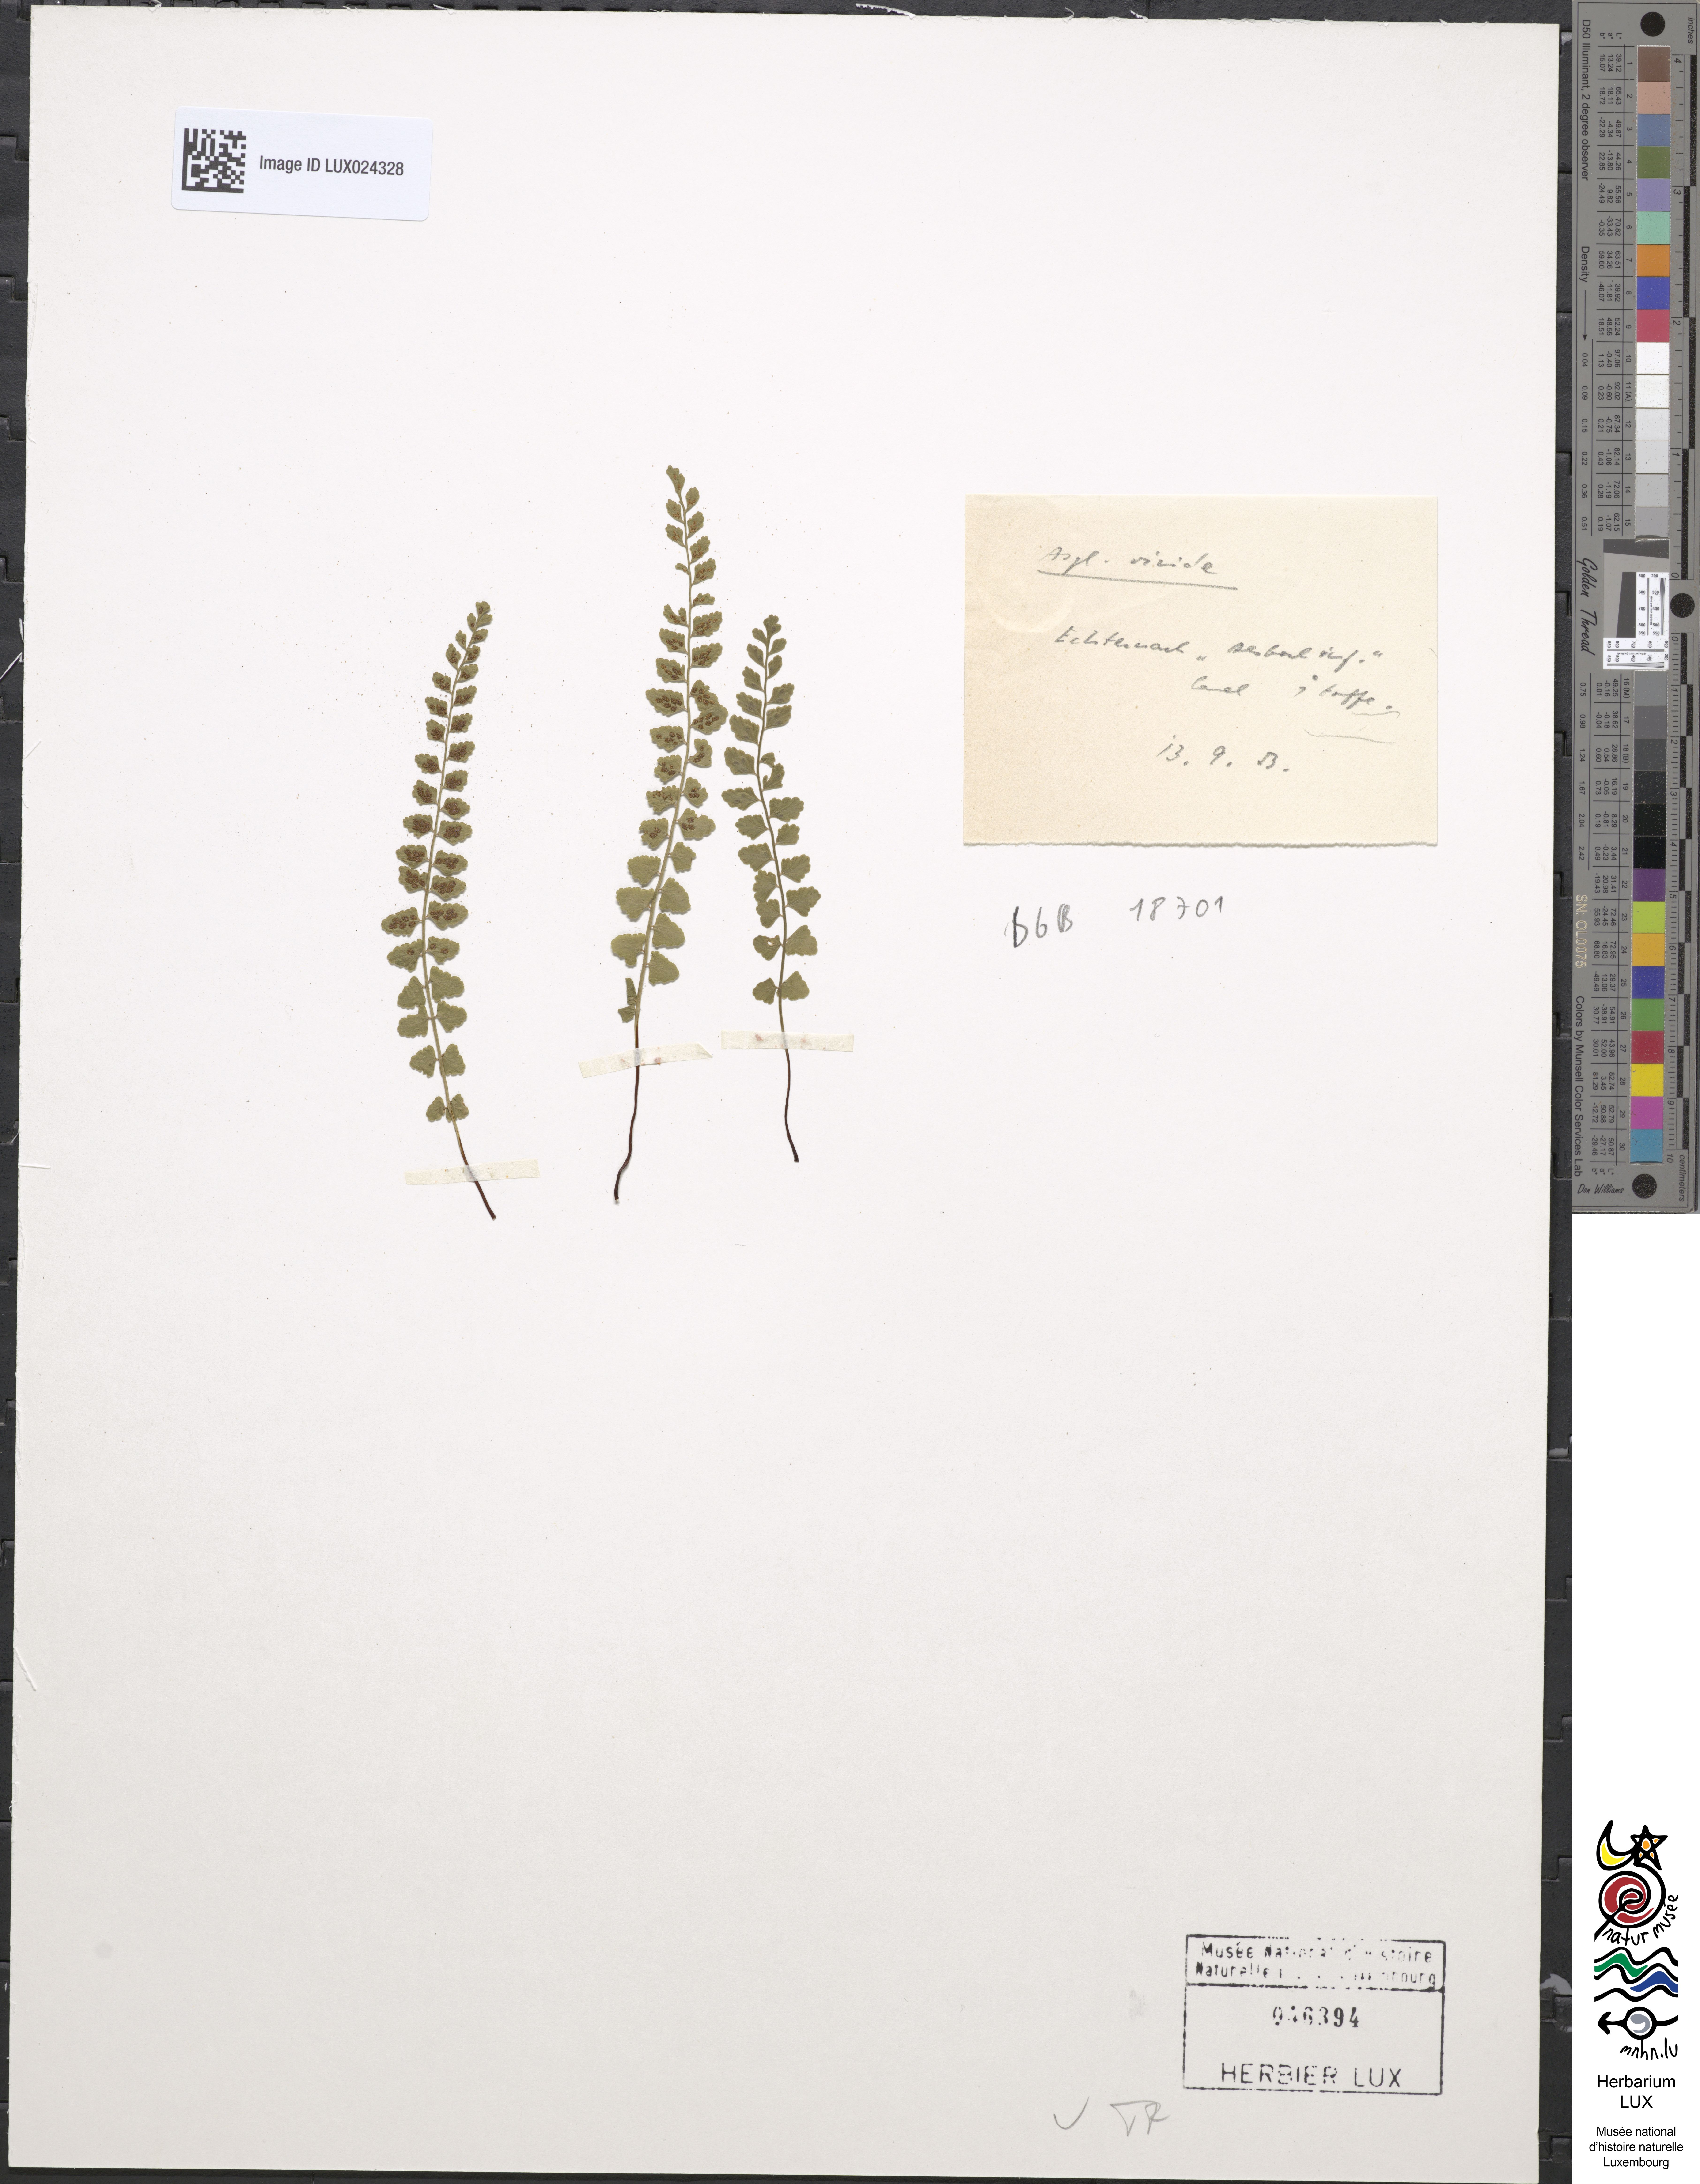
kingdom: Plantae
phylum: Tracheophyta
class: Polypodiopsida
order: Polypodiales
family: Aspleniaceae
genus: Asplenium
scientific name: Asplenium viride
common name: Green spleenwort
